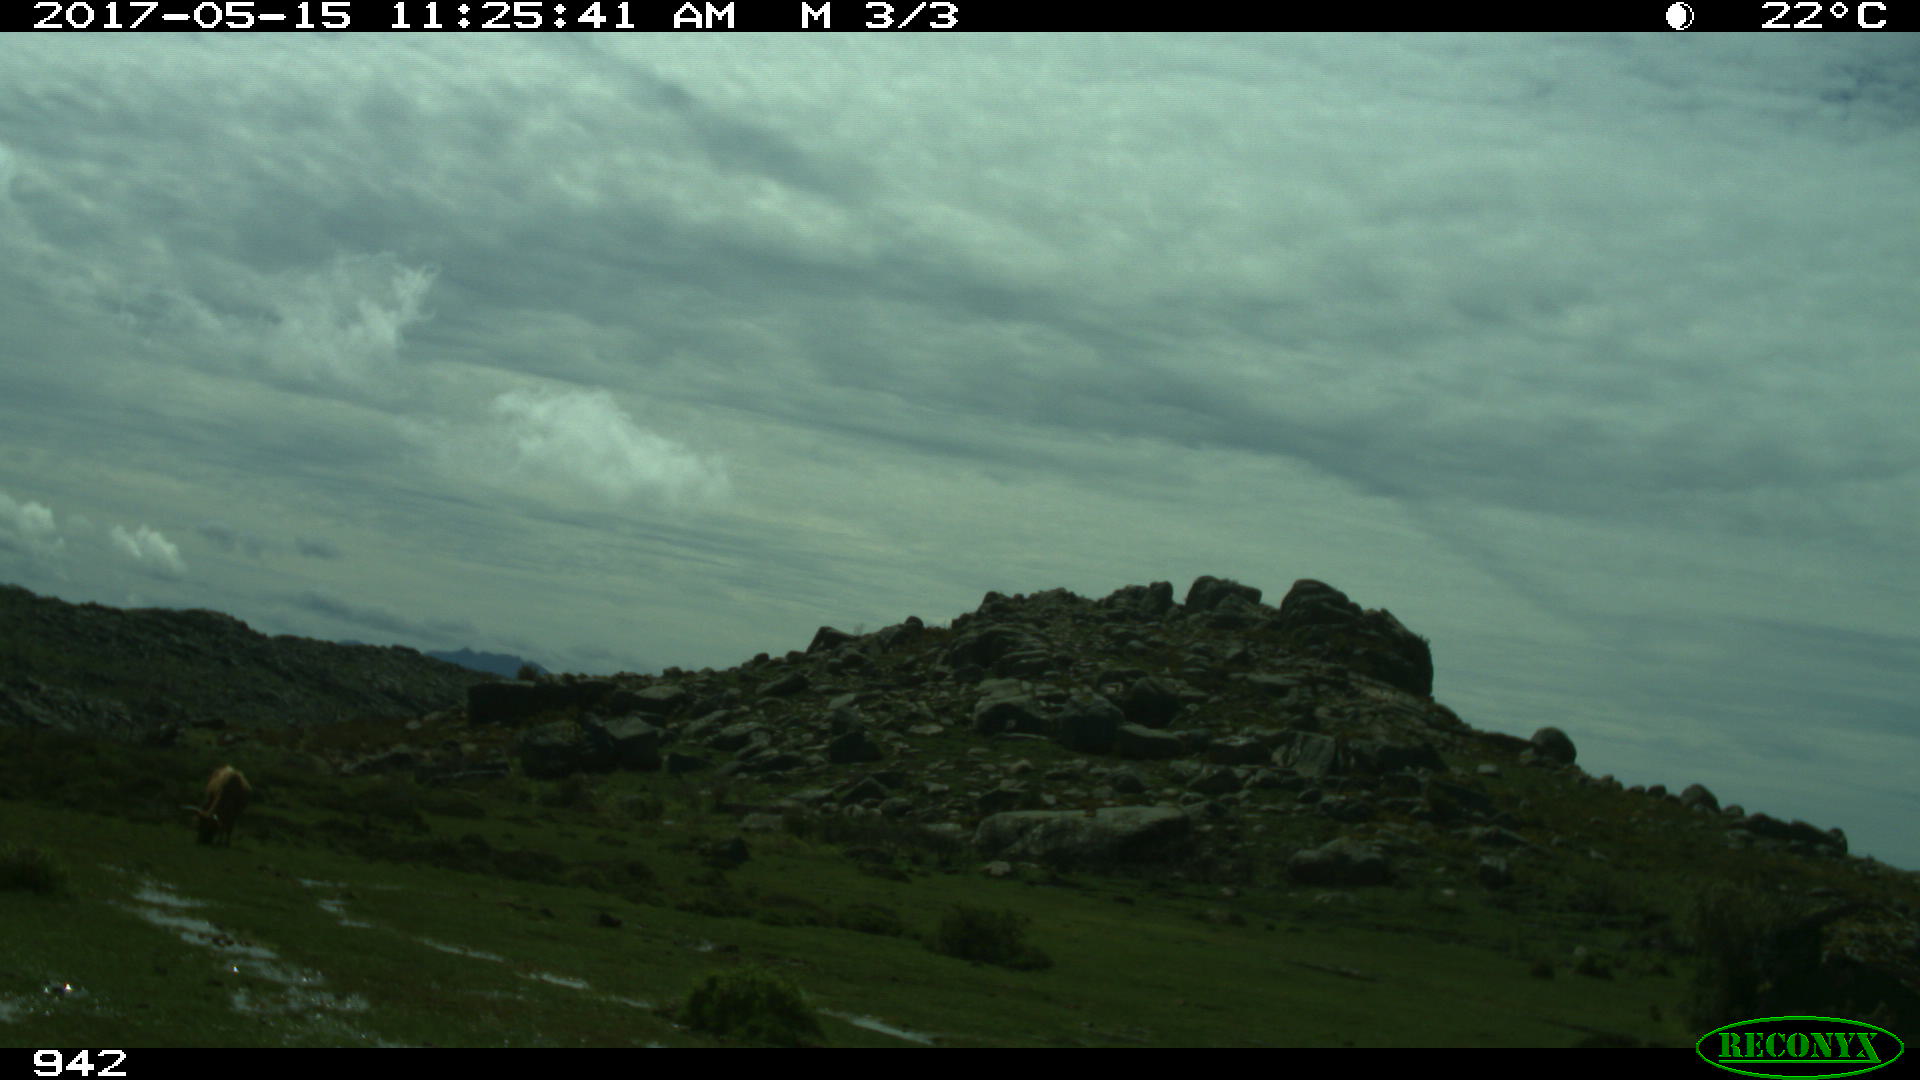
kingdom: Animalia
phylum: Chordata
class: Mammalia
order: Artiodactyla
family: Bovidae
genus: Bos
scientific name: Bos taurus
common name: Domesticated cattle
